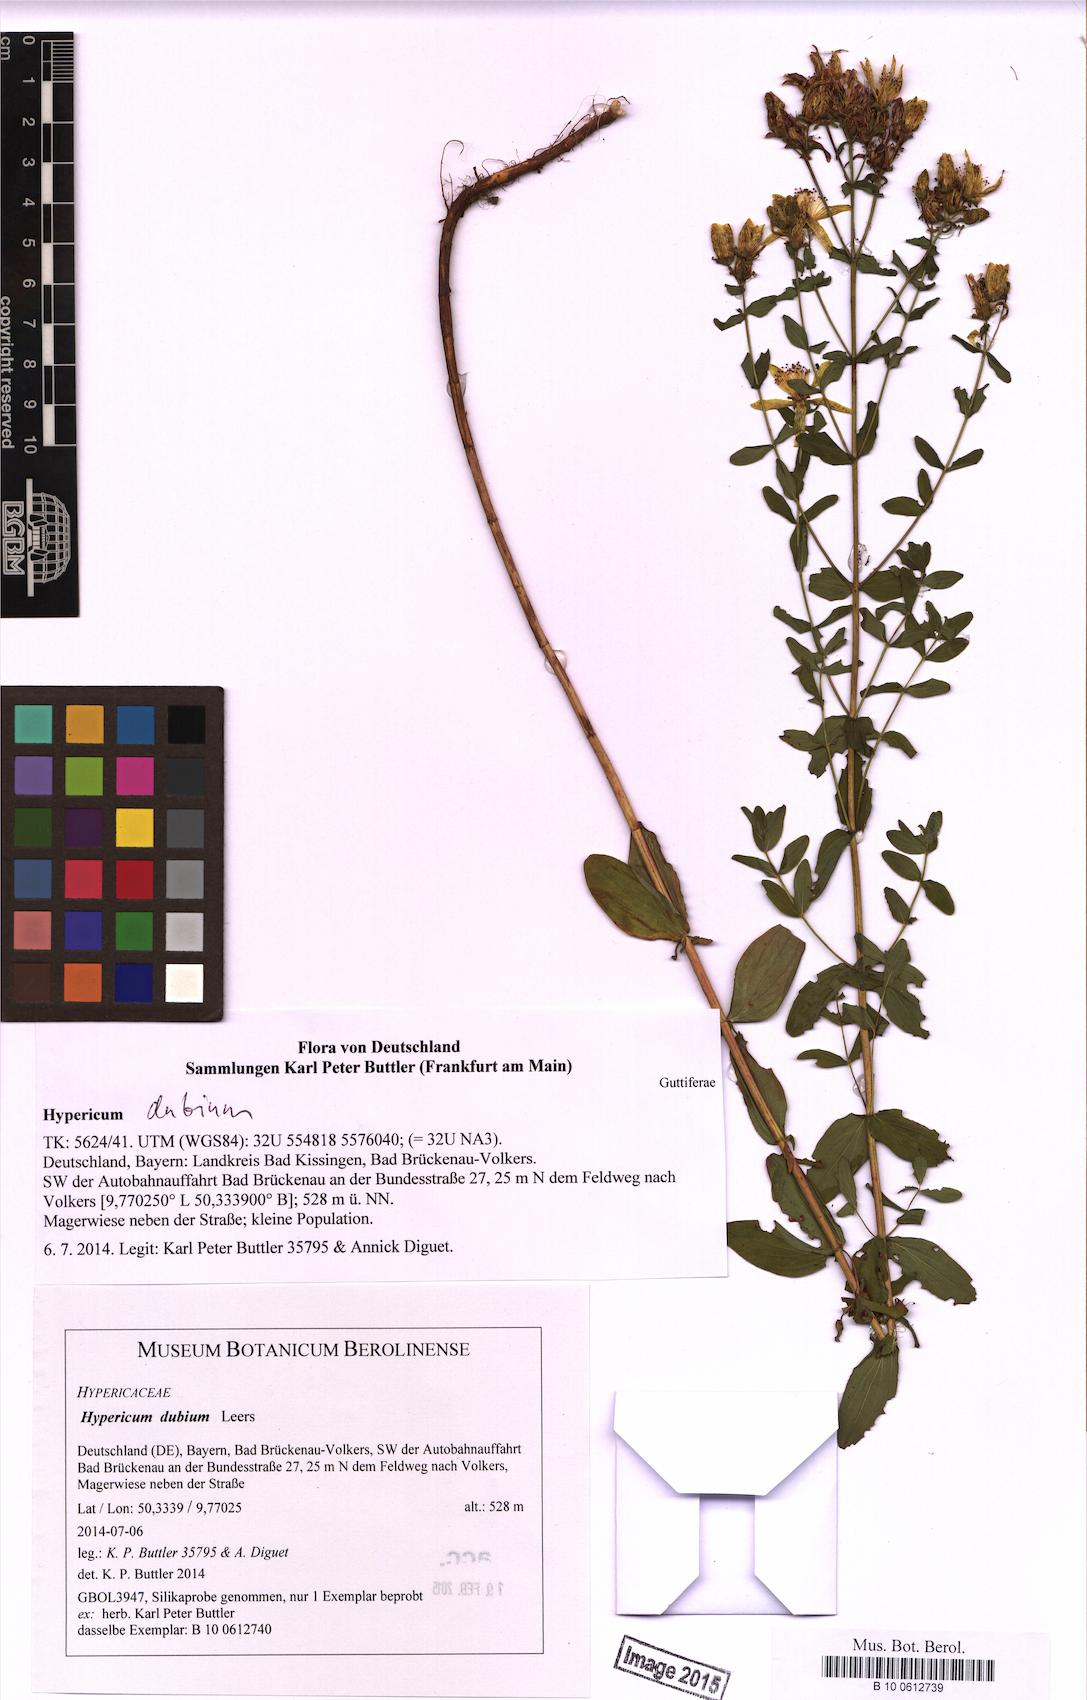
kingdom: Plantae
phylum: Tracheophyta
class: Magnoliopsida
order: Malpighiales
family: Hypericaceae
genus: Hypericum
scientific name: Hypericum dubium
